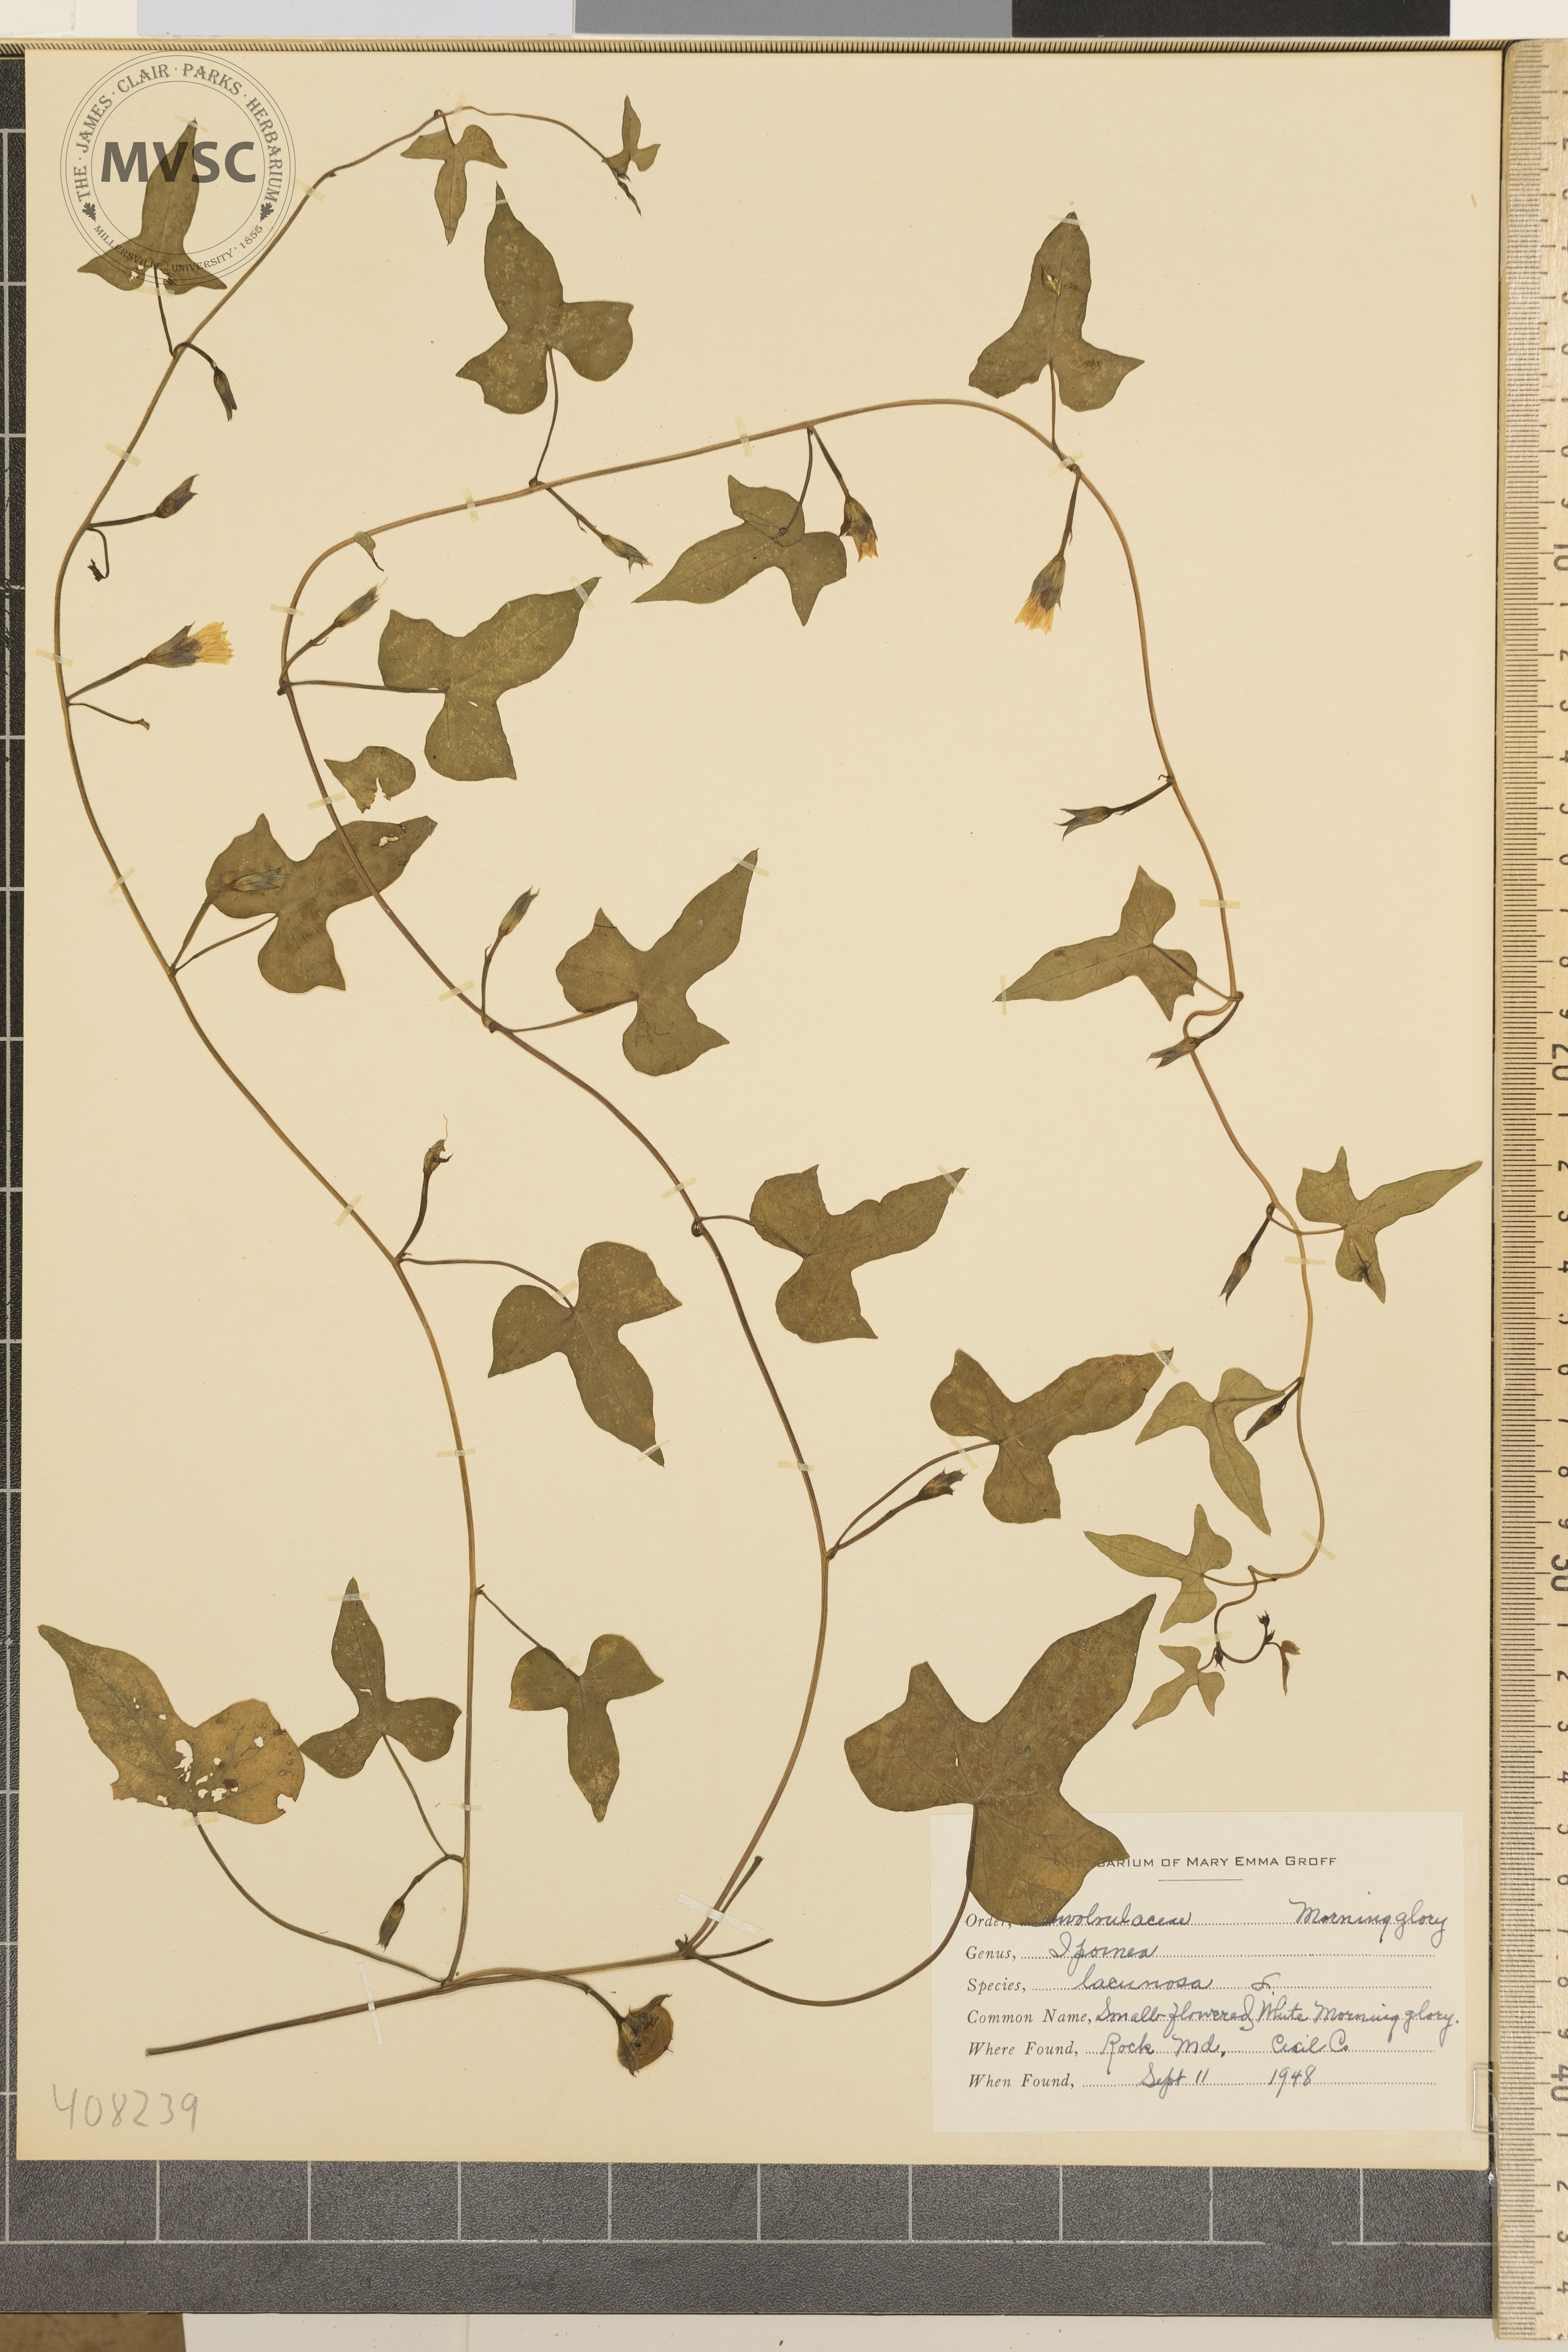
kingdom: Plantae
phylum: Tracheophyta
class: Magnoliopsida
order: Solanales
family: Convolvulaceae
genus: Ipomoea
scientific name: Ipomoea lacunosa
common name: small-flowered White Morning glory
